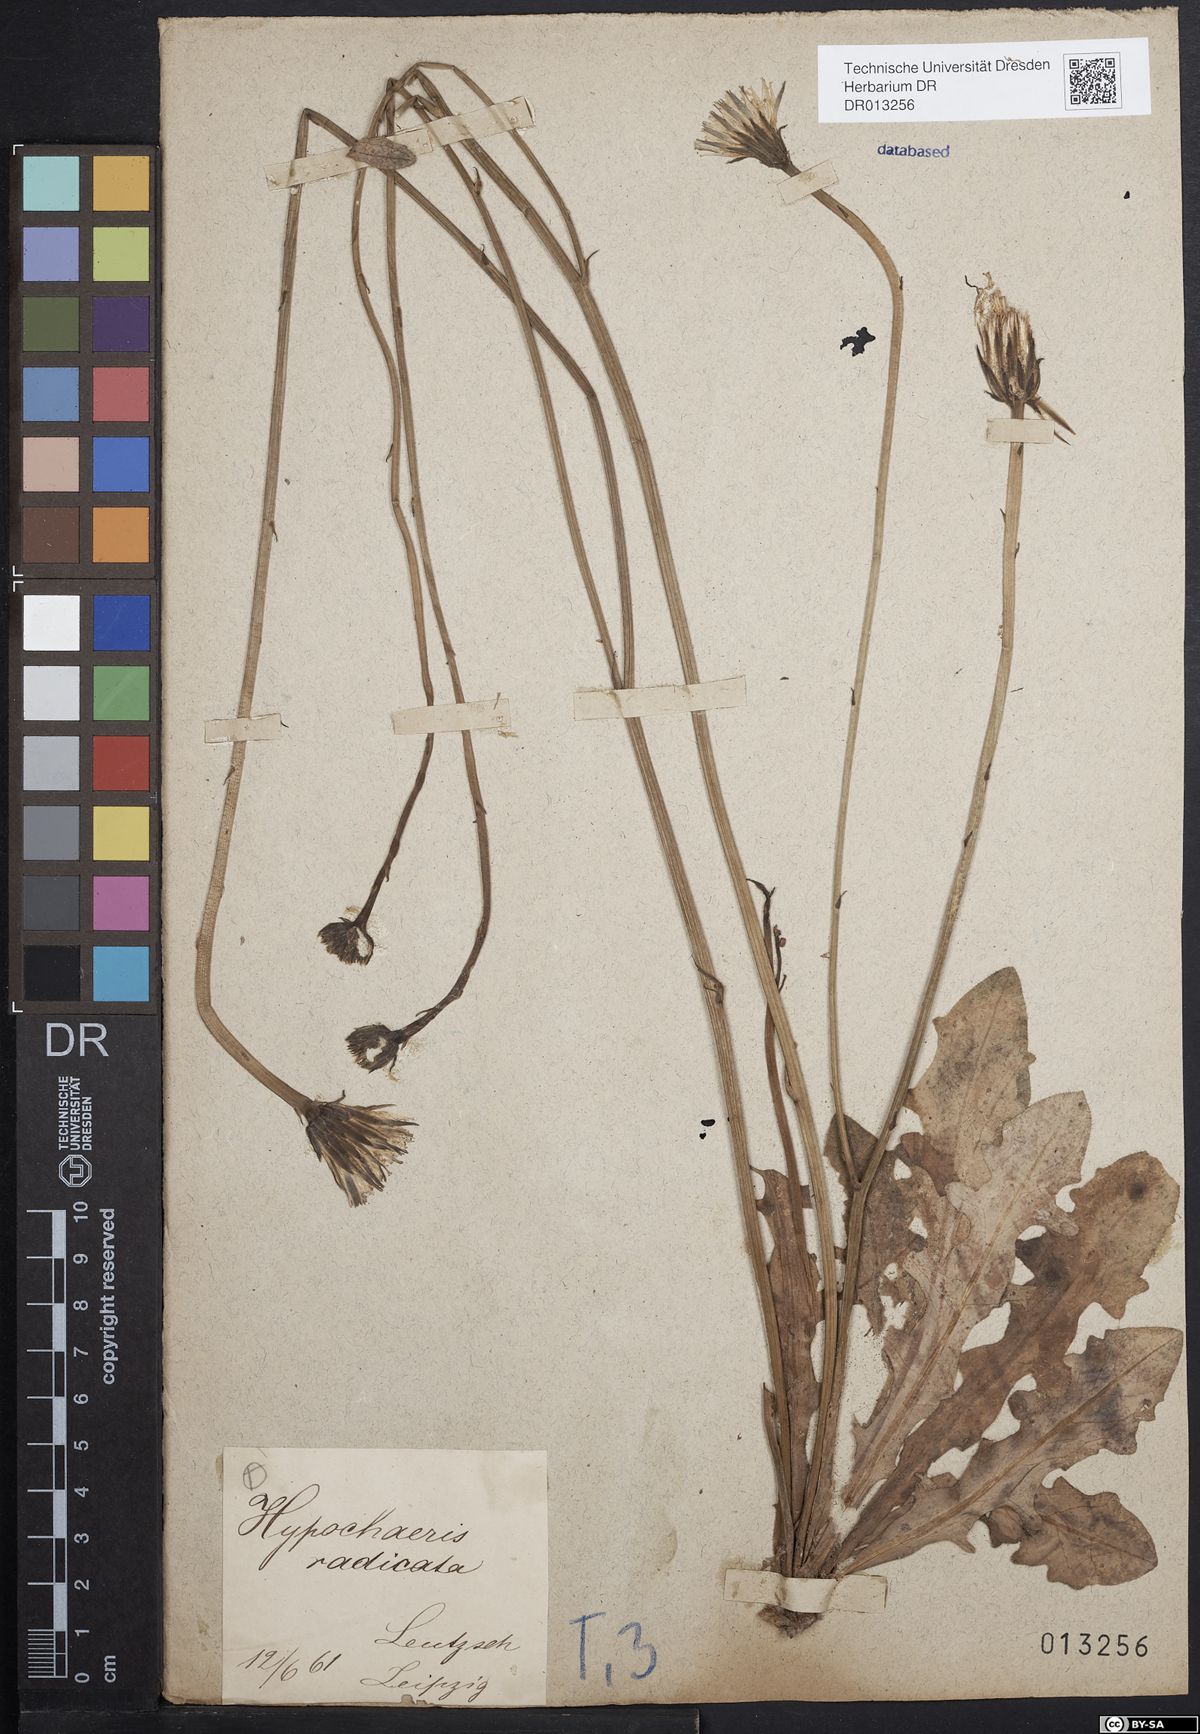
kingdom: Plantae
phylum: Tracheophyta
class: Magnoliopsida
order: Asterales
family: Asteraceae
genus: Hypochaeris
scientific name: Hypochaeris radicata
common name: Flatweed
